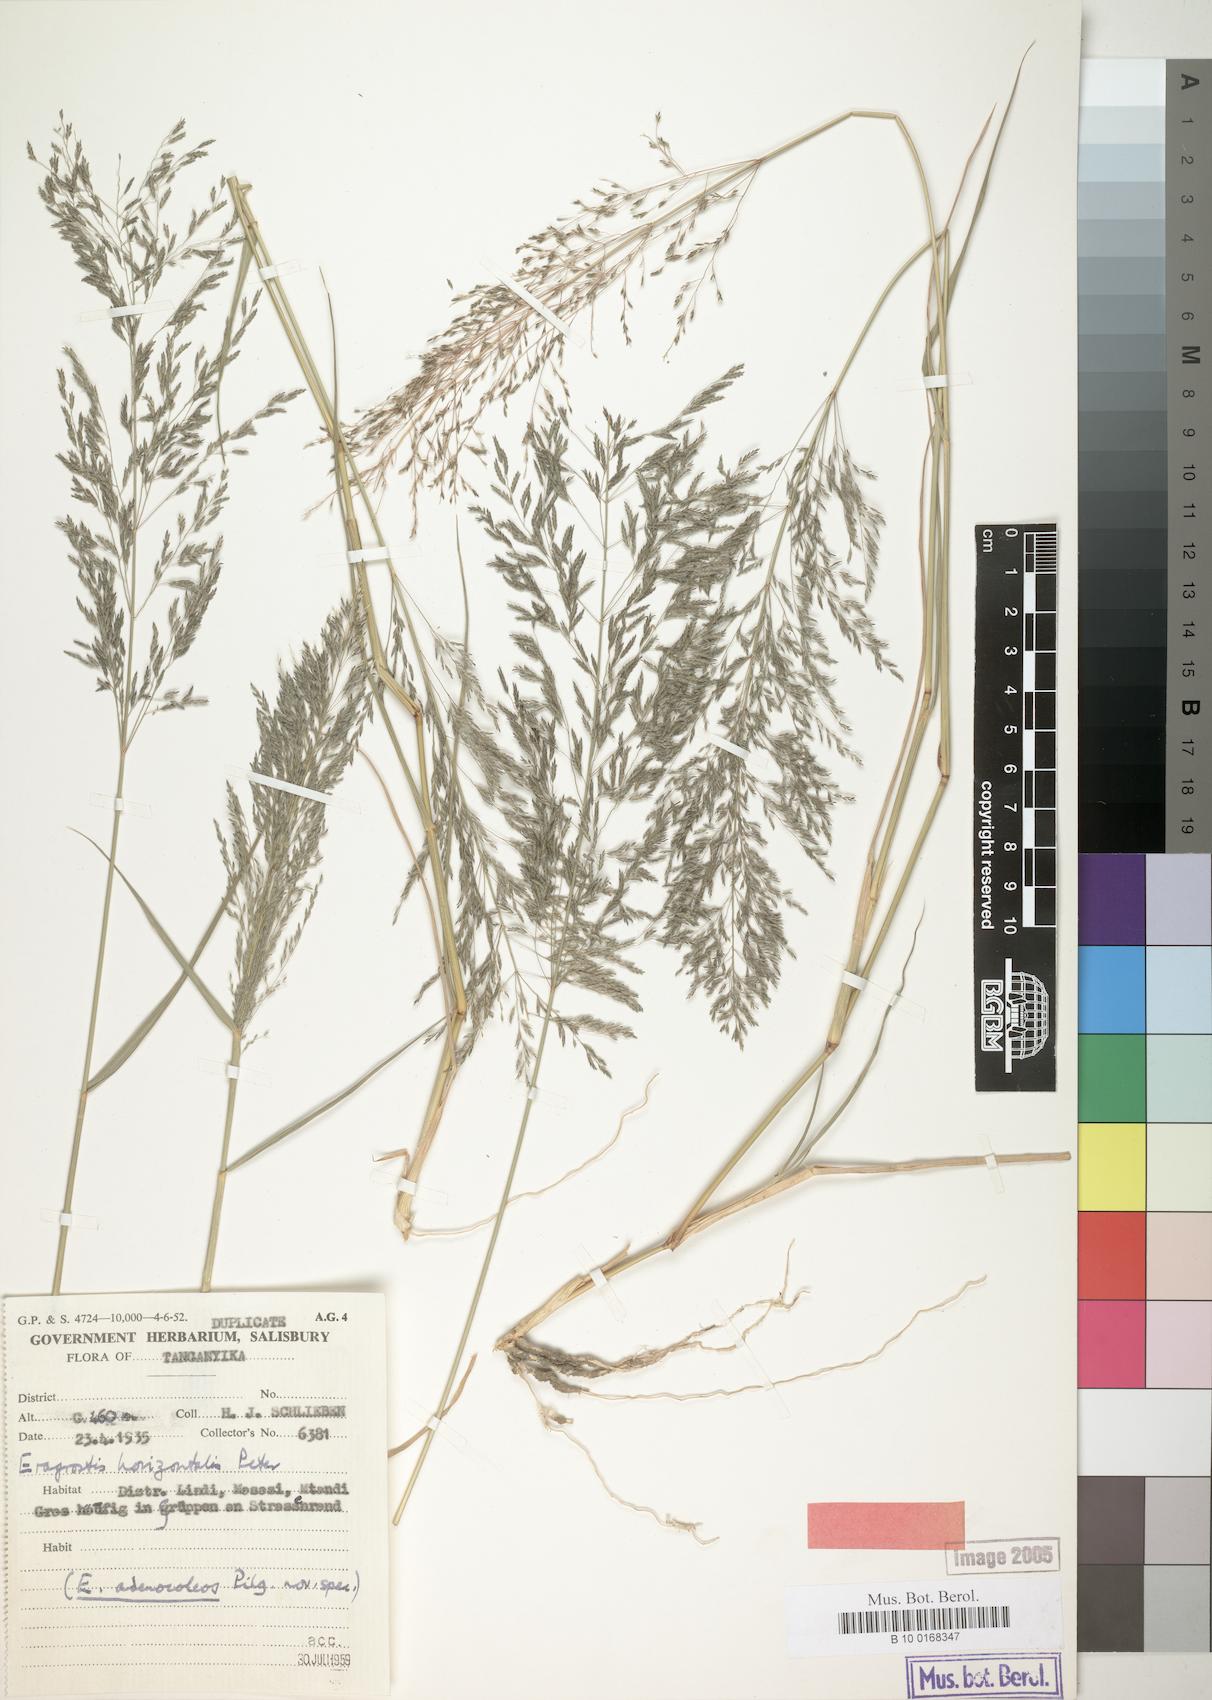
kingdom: Plantae
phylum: Tracheophyta
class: Liliopsida
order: Poales
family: Poaceae
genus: Eragrostis
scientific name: Eragrostis cylindriflora
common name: Cylinderflower lovegrass
